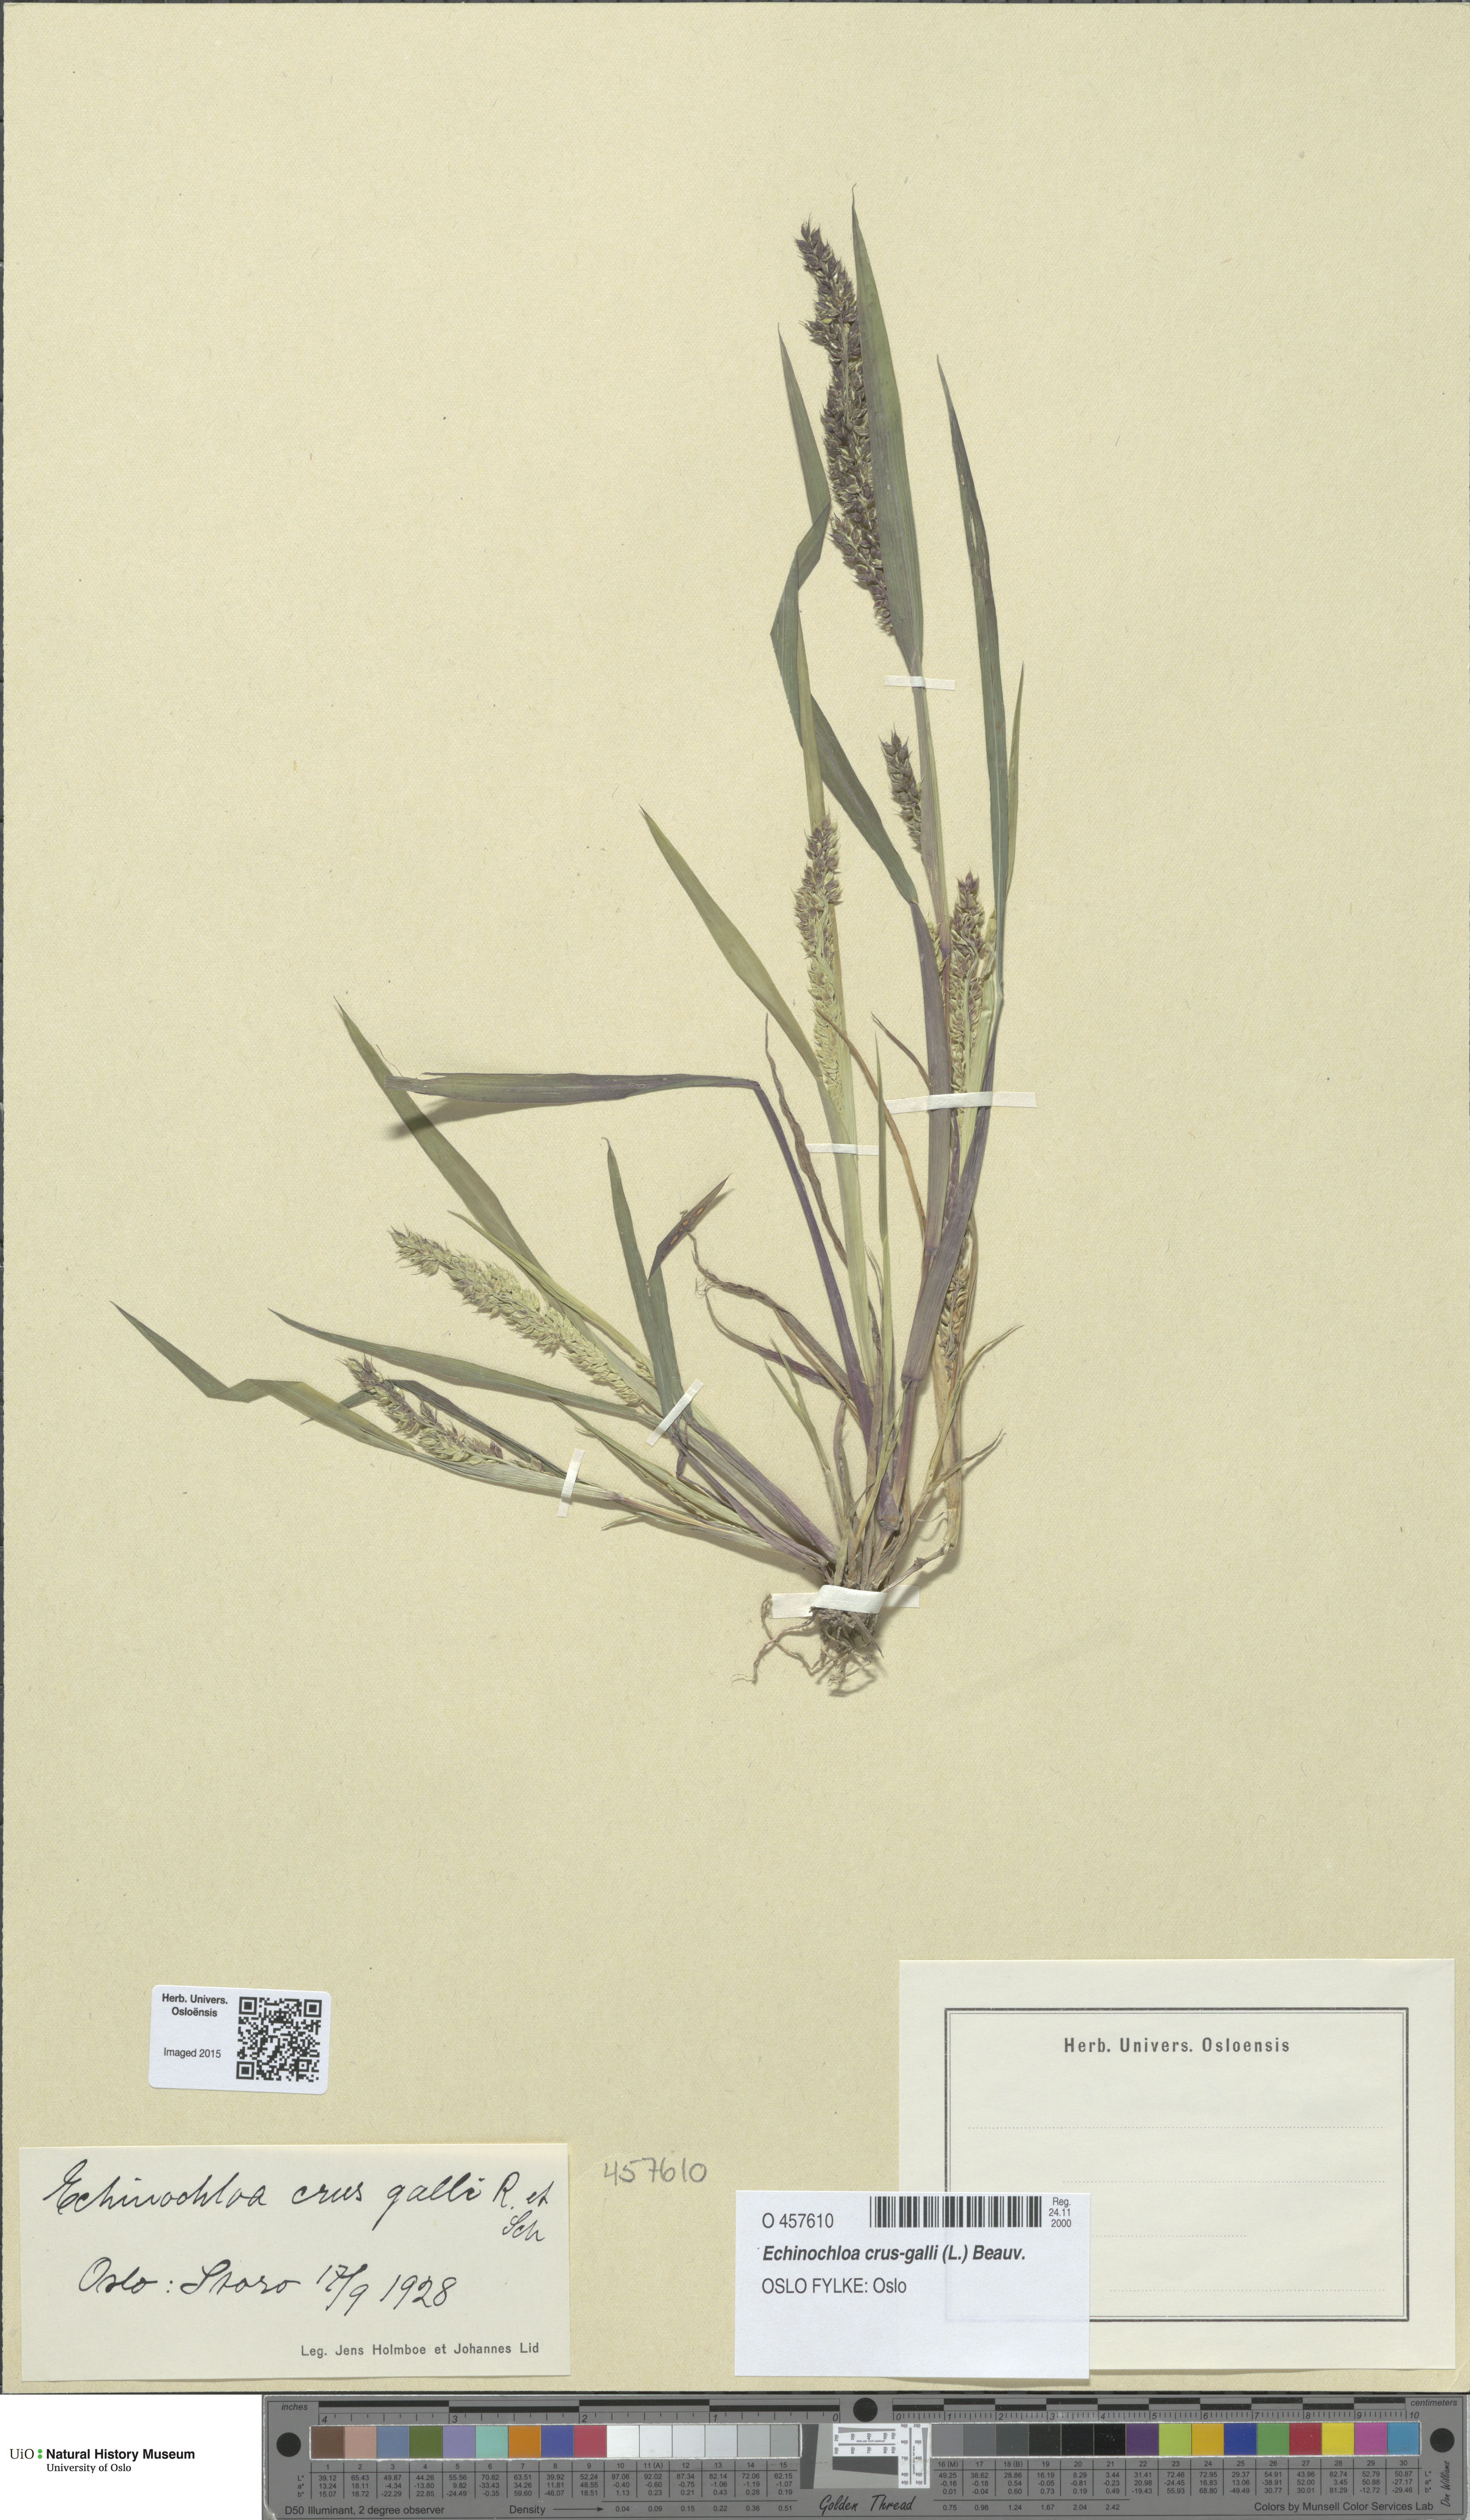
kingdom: Plantae
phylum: Tracheophyta
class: Liliopsida
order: Poales
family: Poaceae
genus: Echinochloa
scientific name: Echinochloa crus-galli
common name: Cockspur
